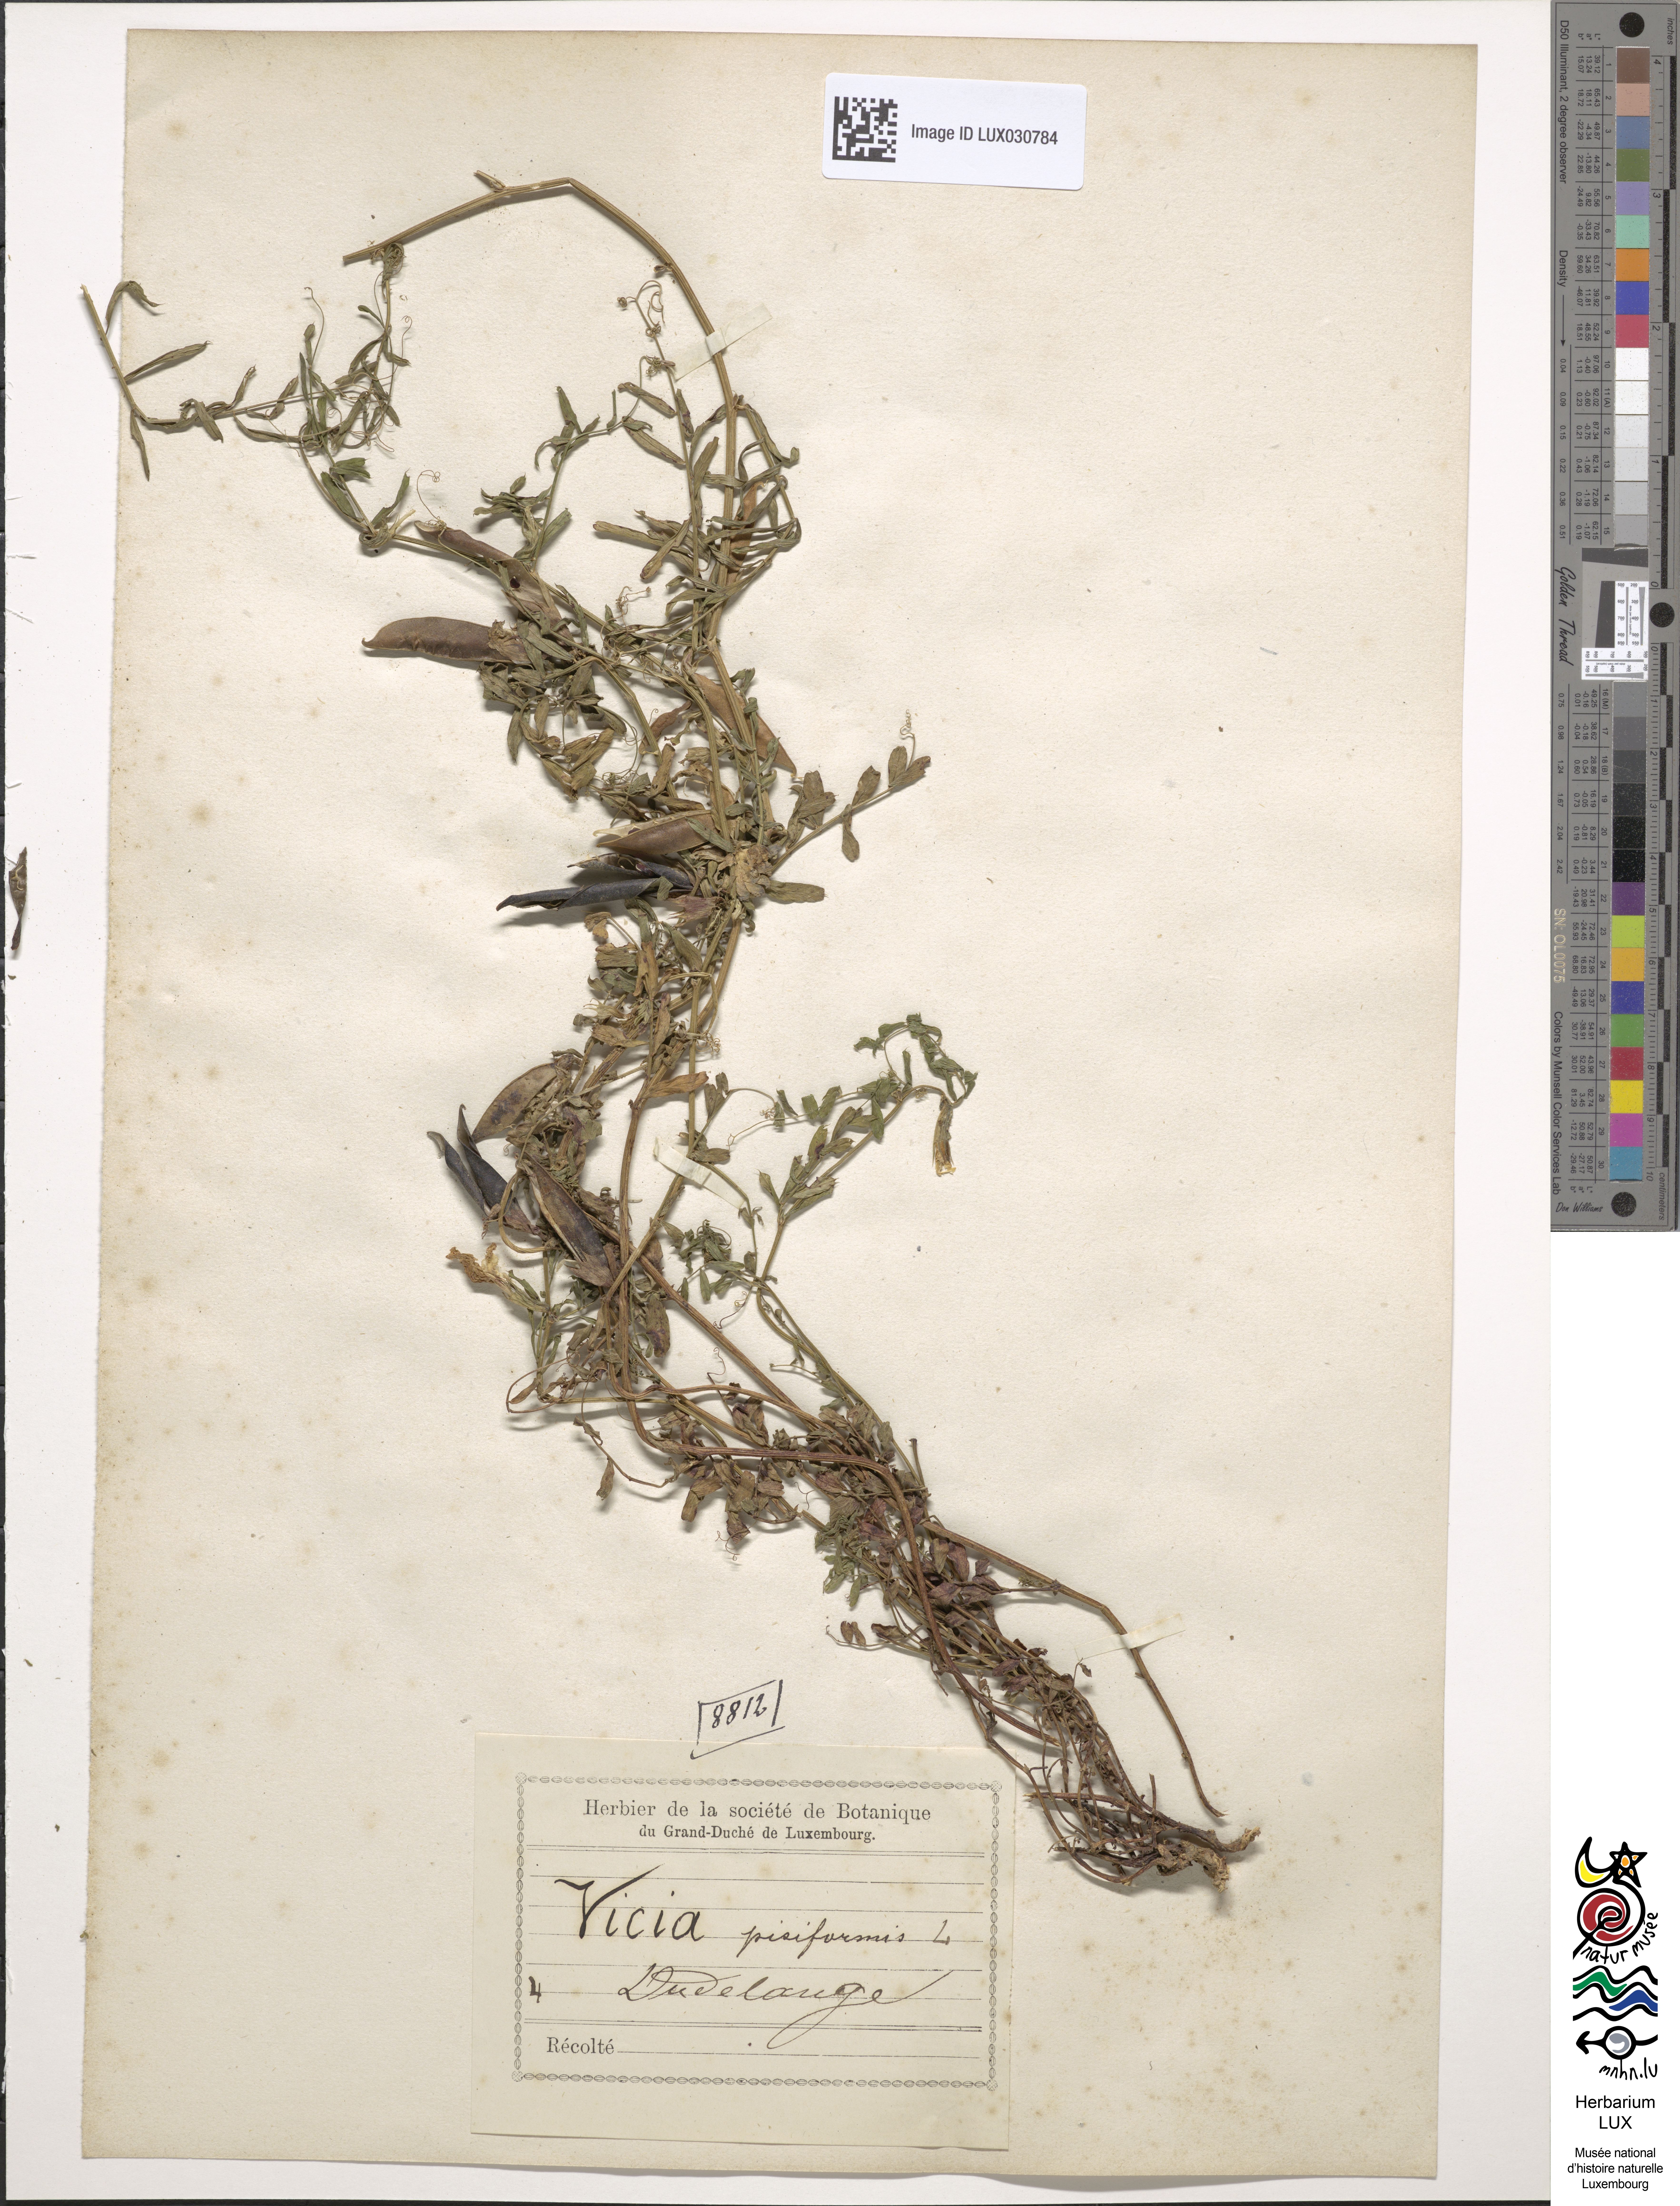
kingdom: Plantae
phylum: Tracheophyta
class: Magnoliopsida
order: Fabales
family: Fabaceae
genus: Vicia
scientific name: Vicia pisiformis
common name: Pale-flower vetch
